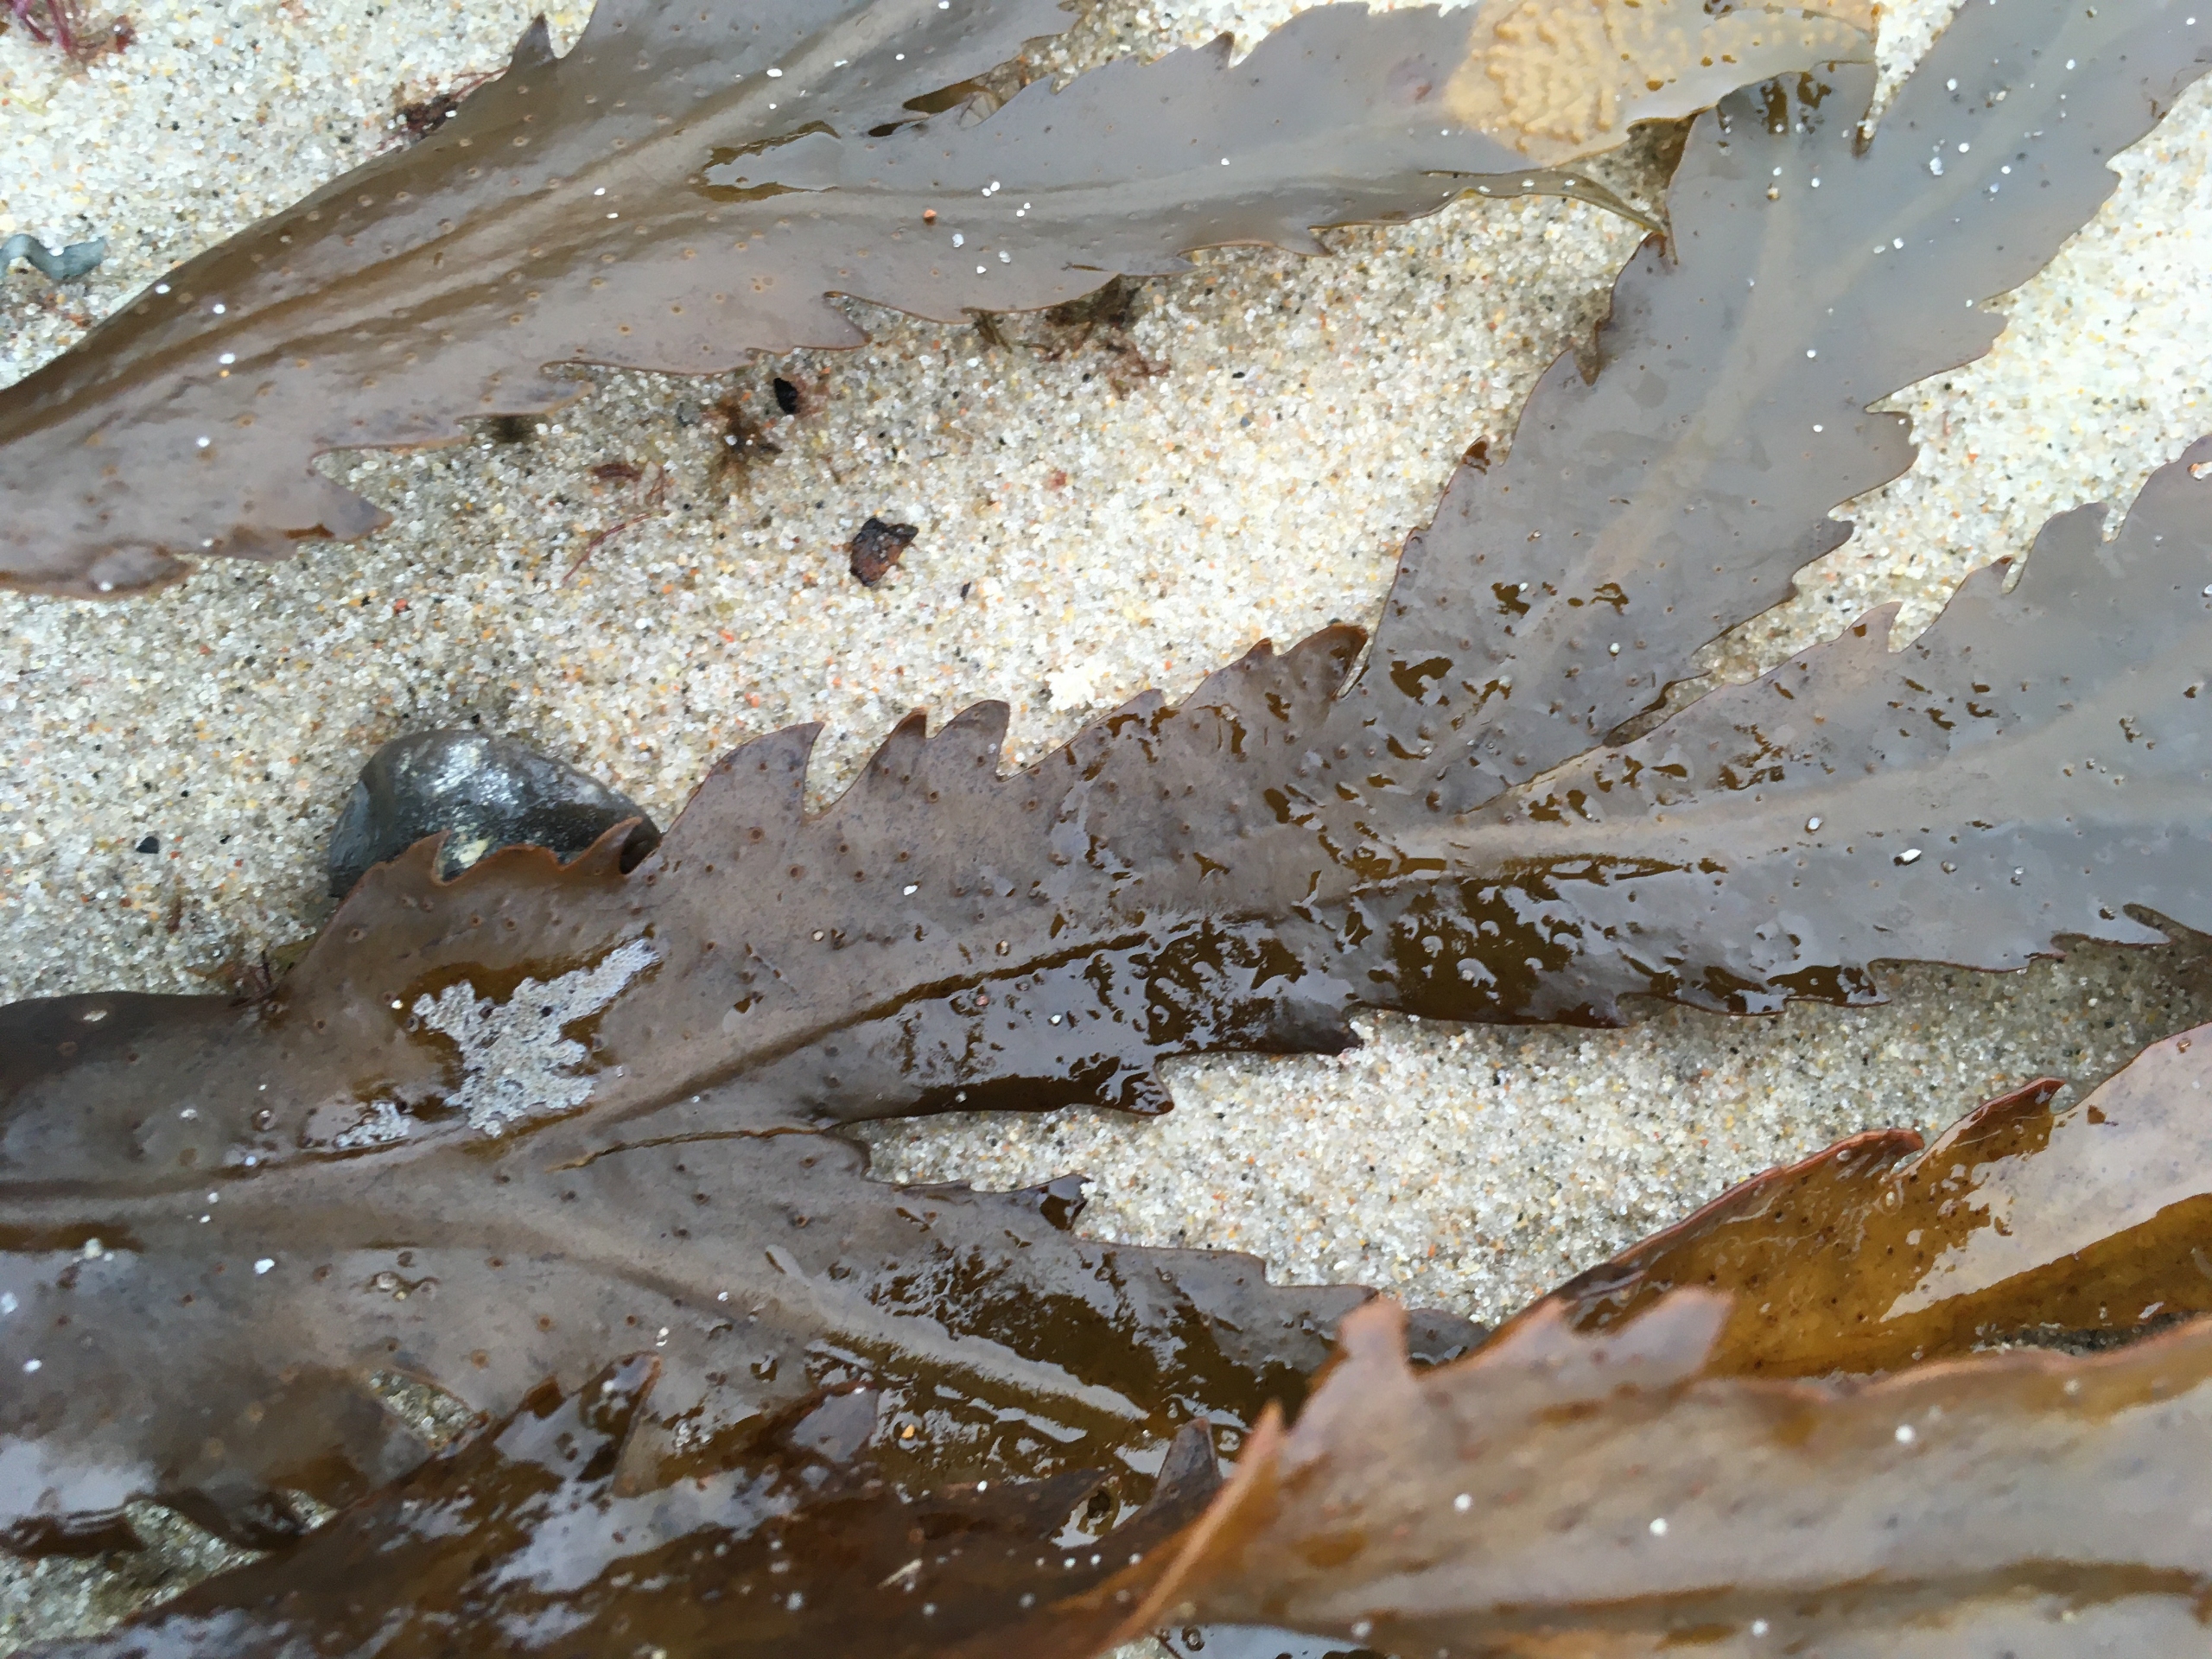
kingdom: Chromista
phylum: Ochrophyta
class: Phaeophyceae
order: Fucales
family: Fucaceae
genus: Fucus
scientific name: Fucus serratus
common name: Savtang
